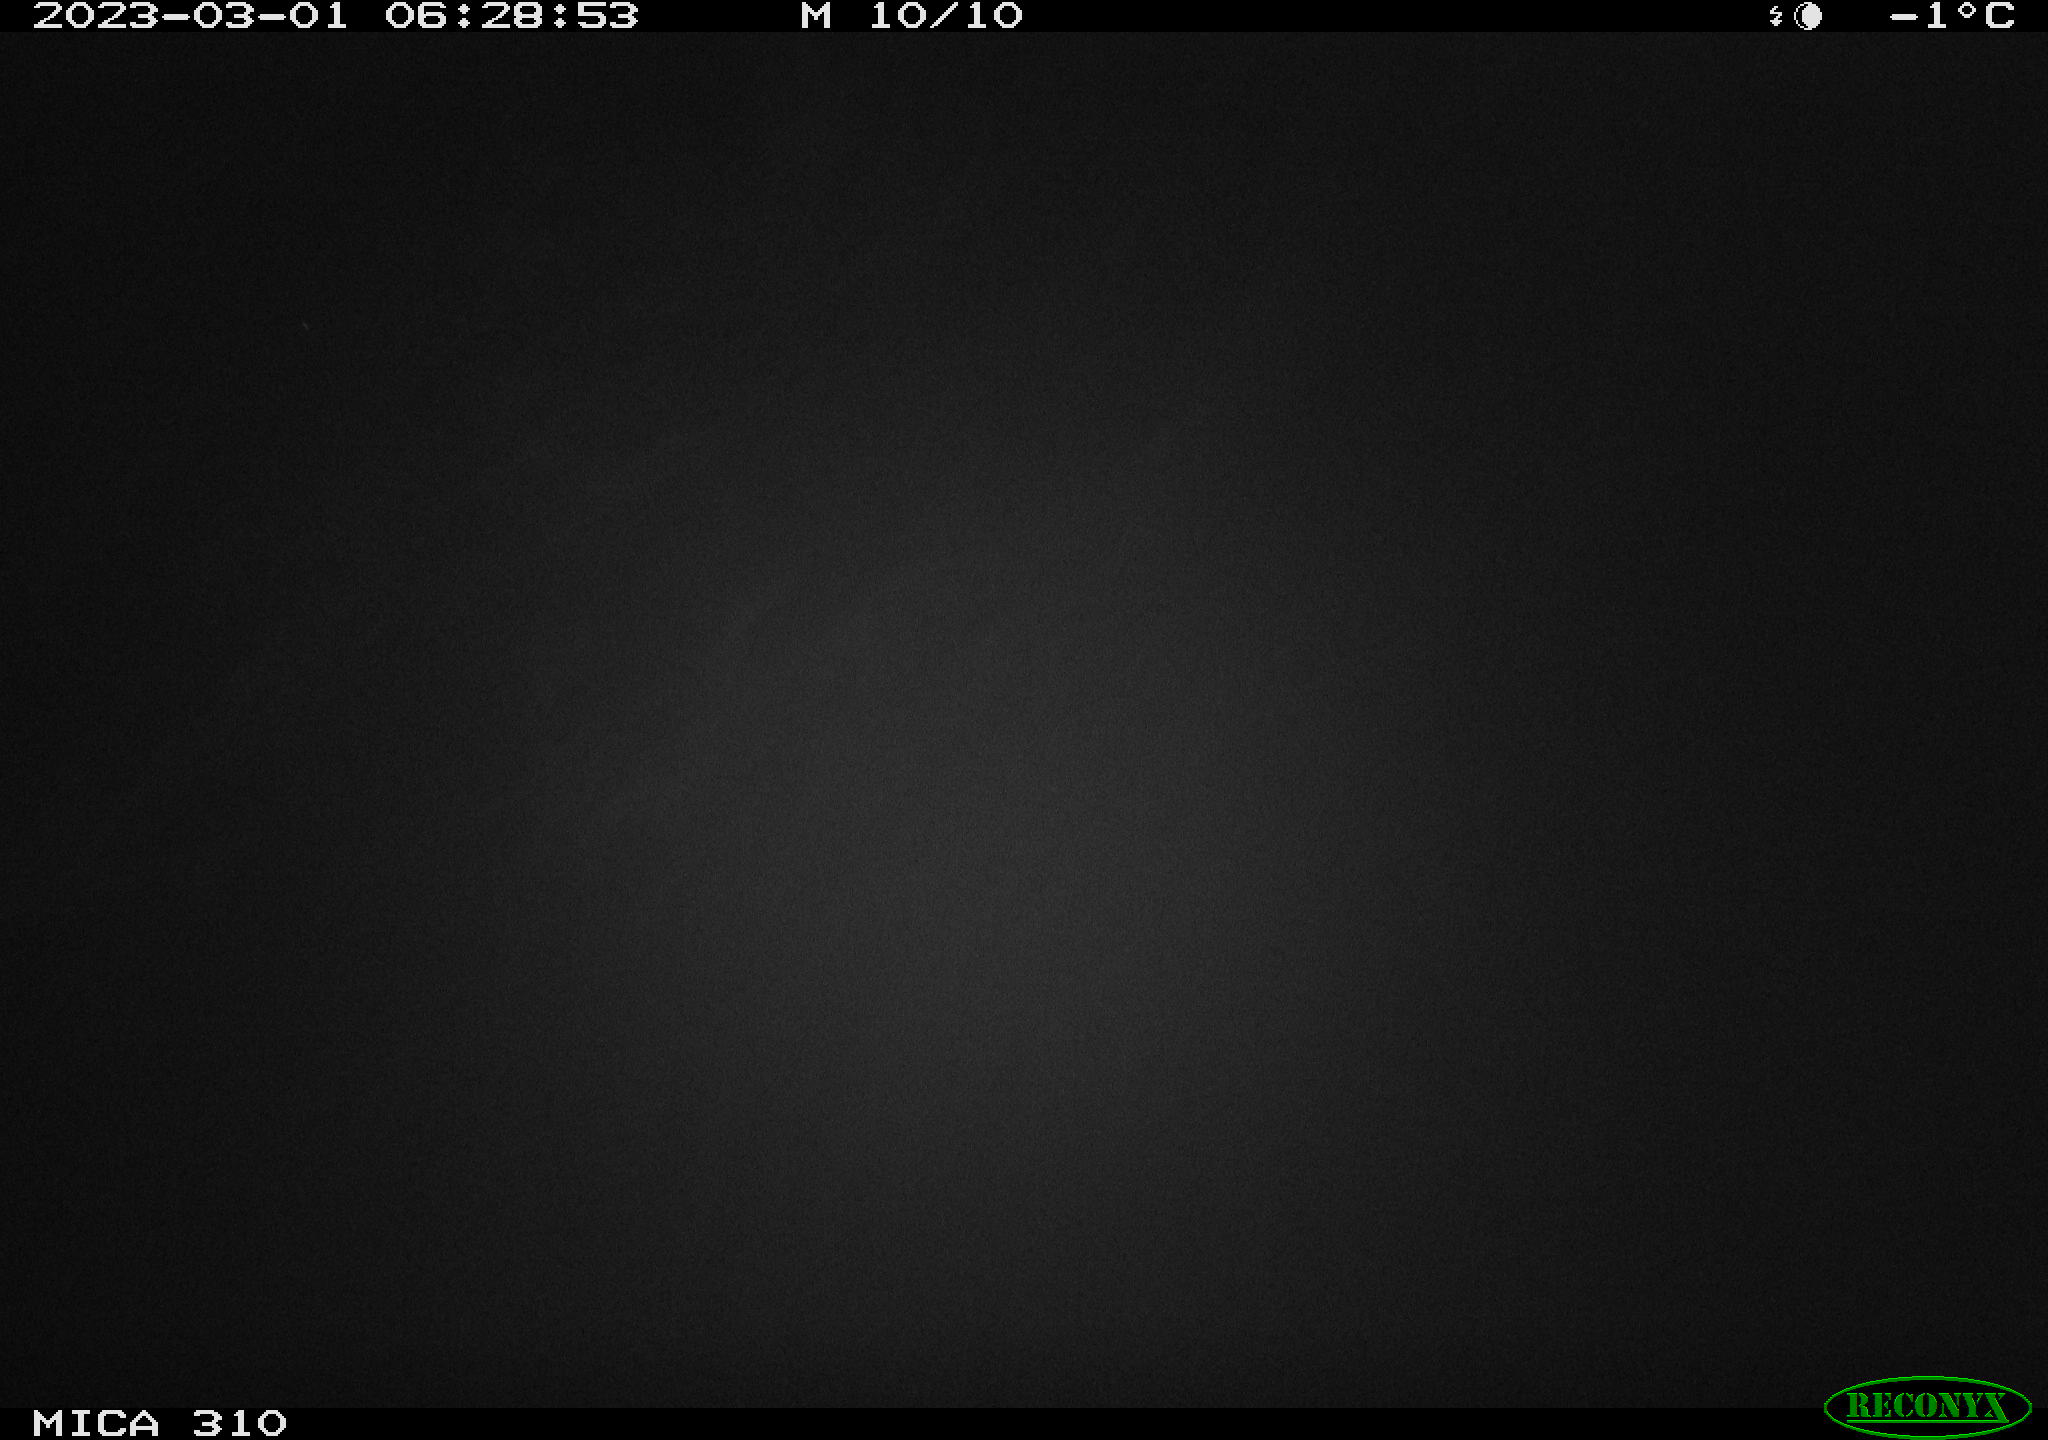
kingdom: Animalia
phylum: Chordata
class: Aves
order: Pelecaniformes
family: Ardeidae
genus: Ardea
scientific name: Ardea cinerea
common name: Grey heron
